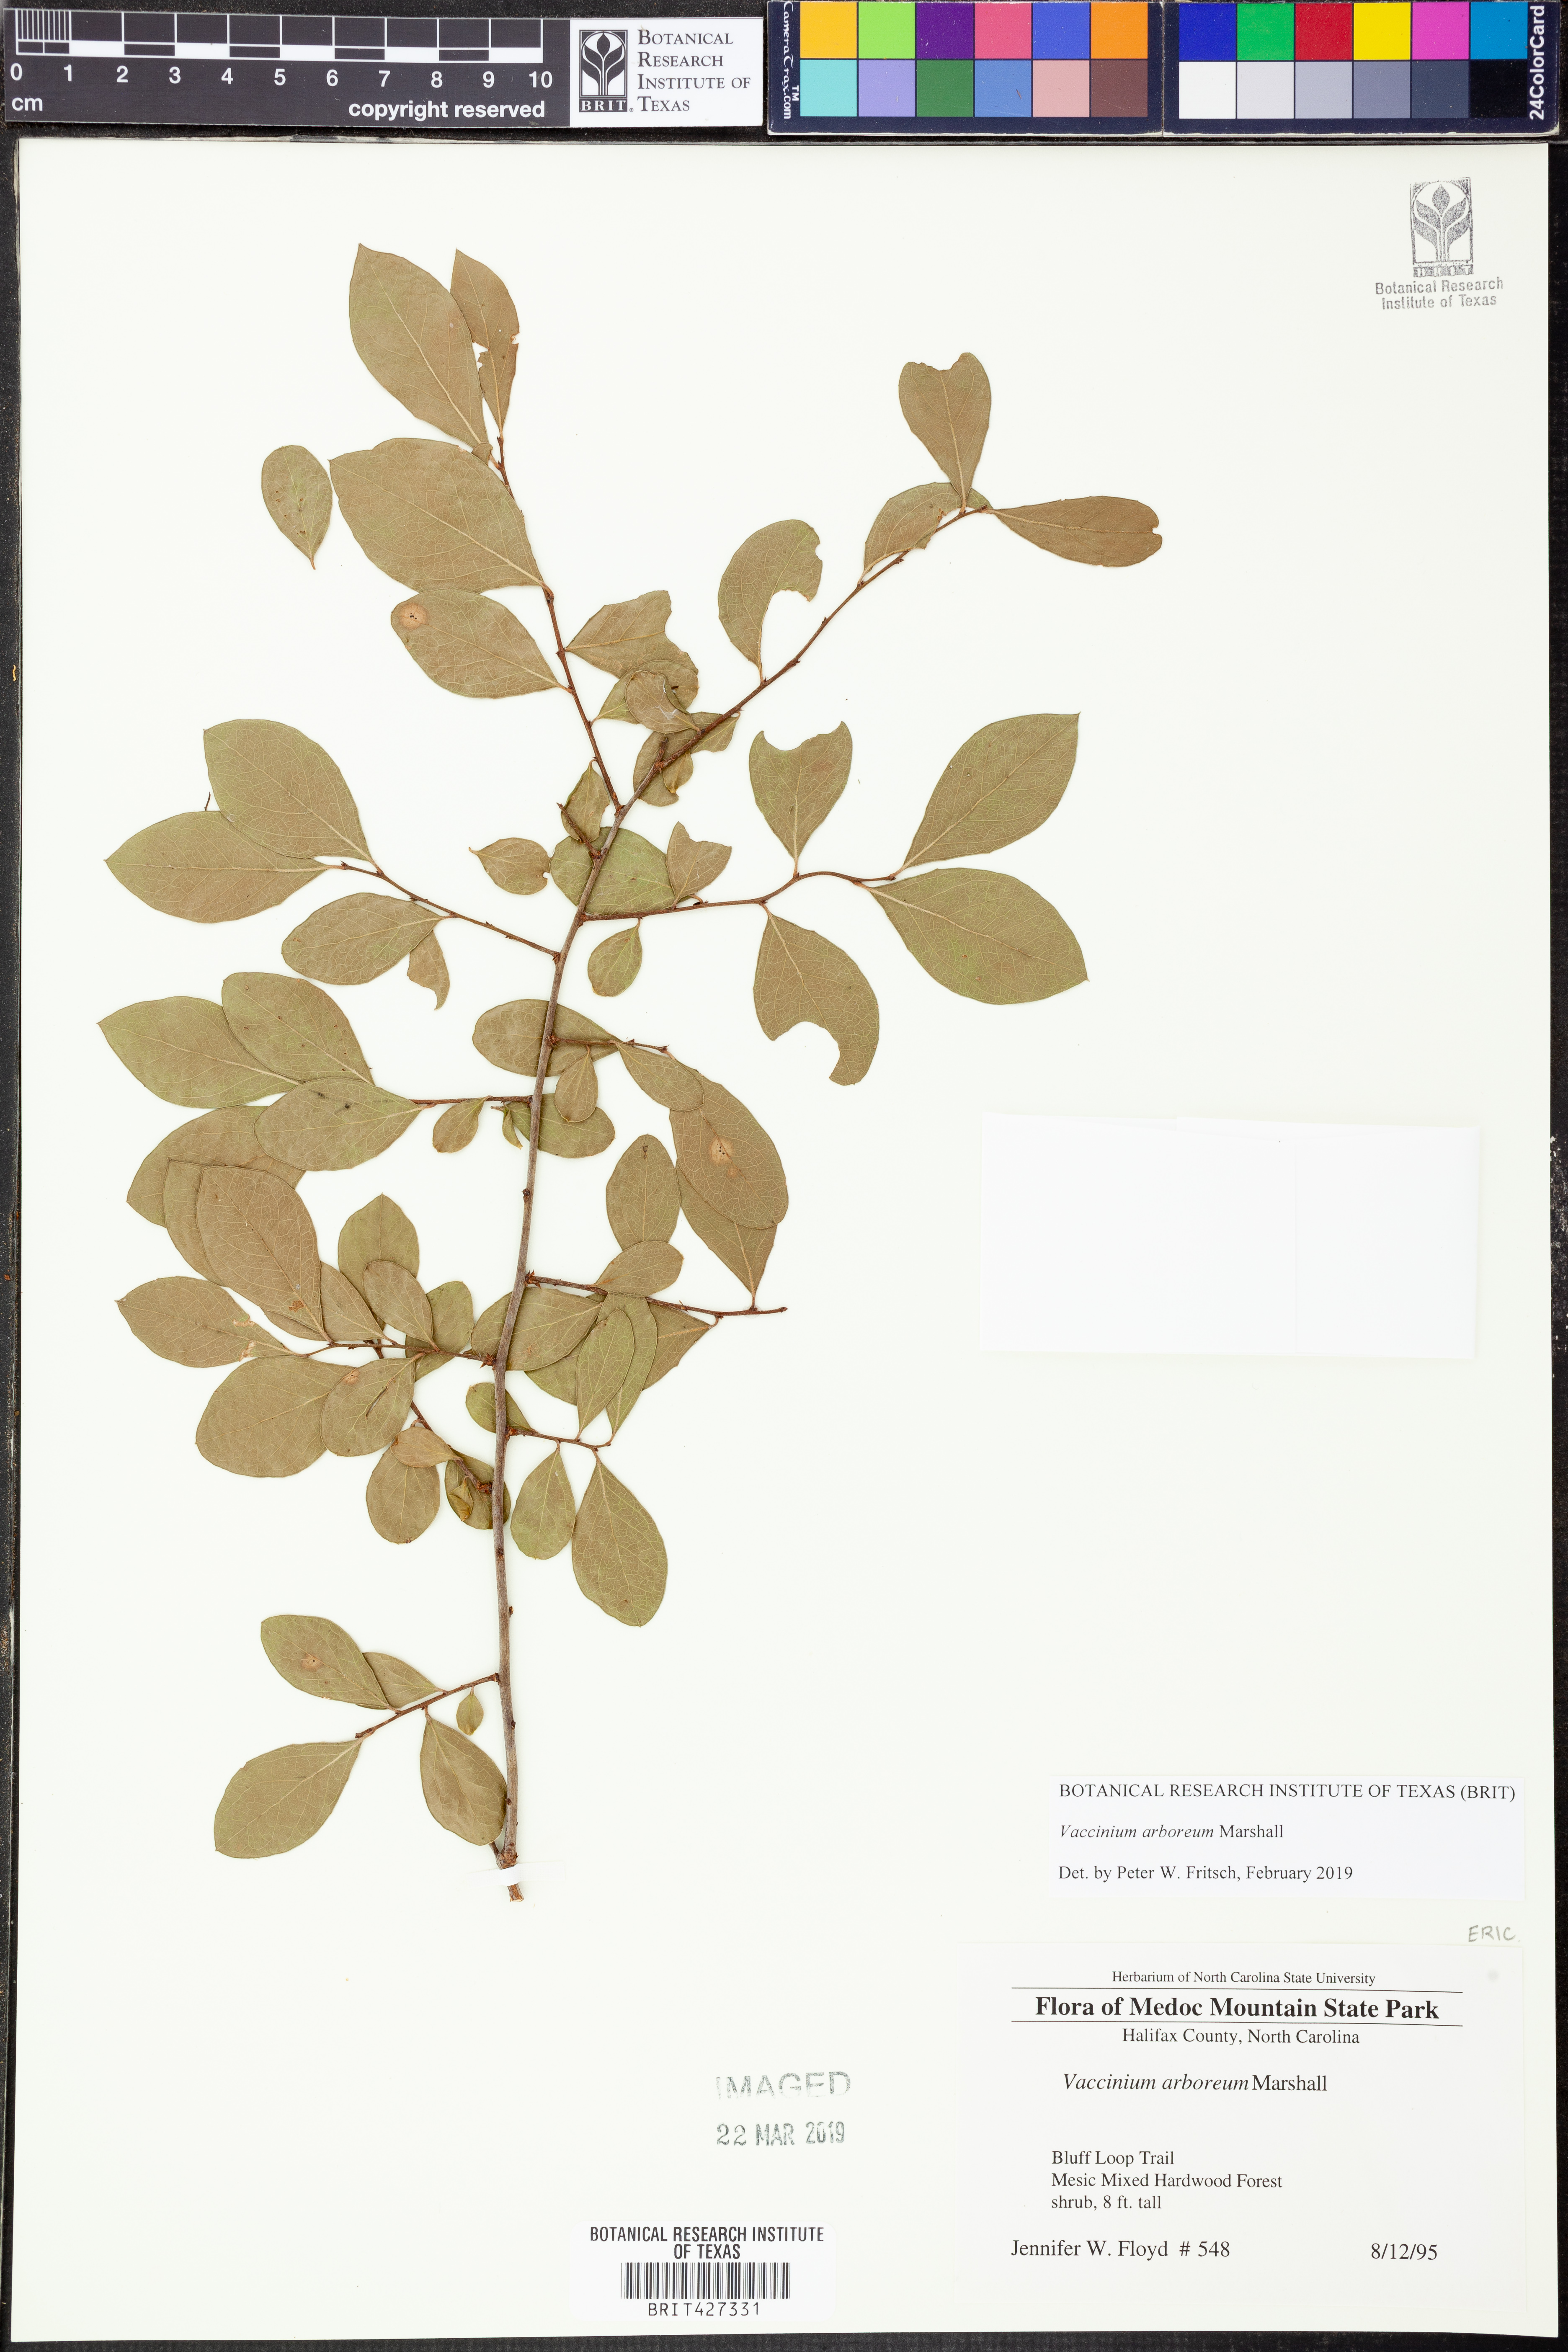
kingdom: Plantae
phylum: Tracheophyta
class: Magnoliopsida
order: Ericales
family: Ericaceae
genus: Vaccinium
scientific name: Vaccinium arboreum
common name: Farkleberry
